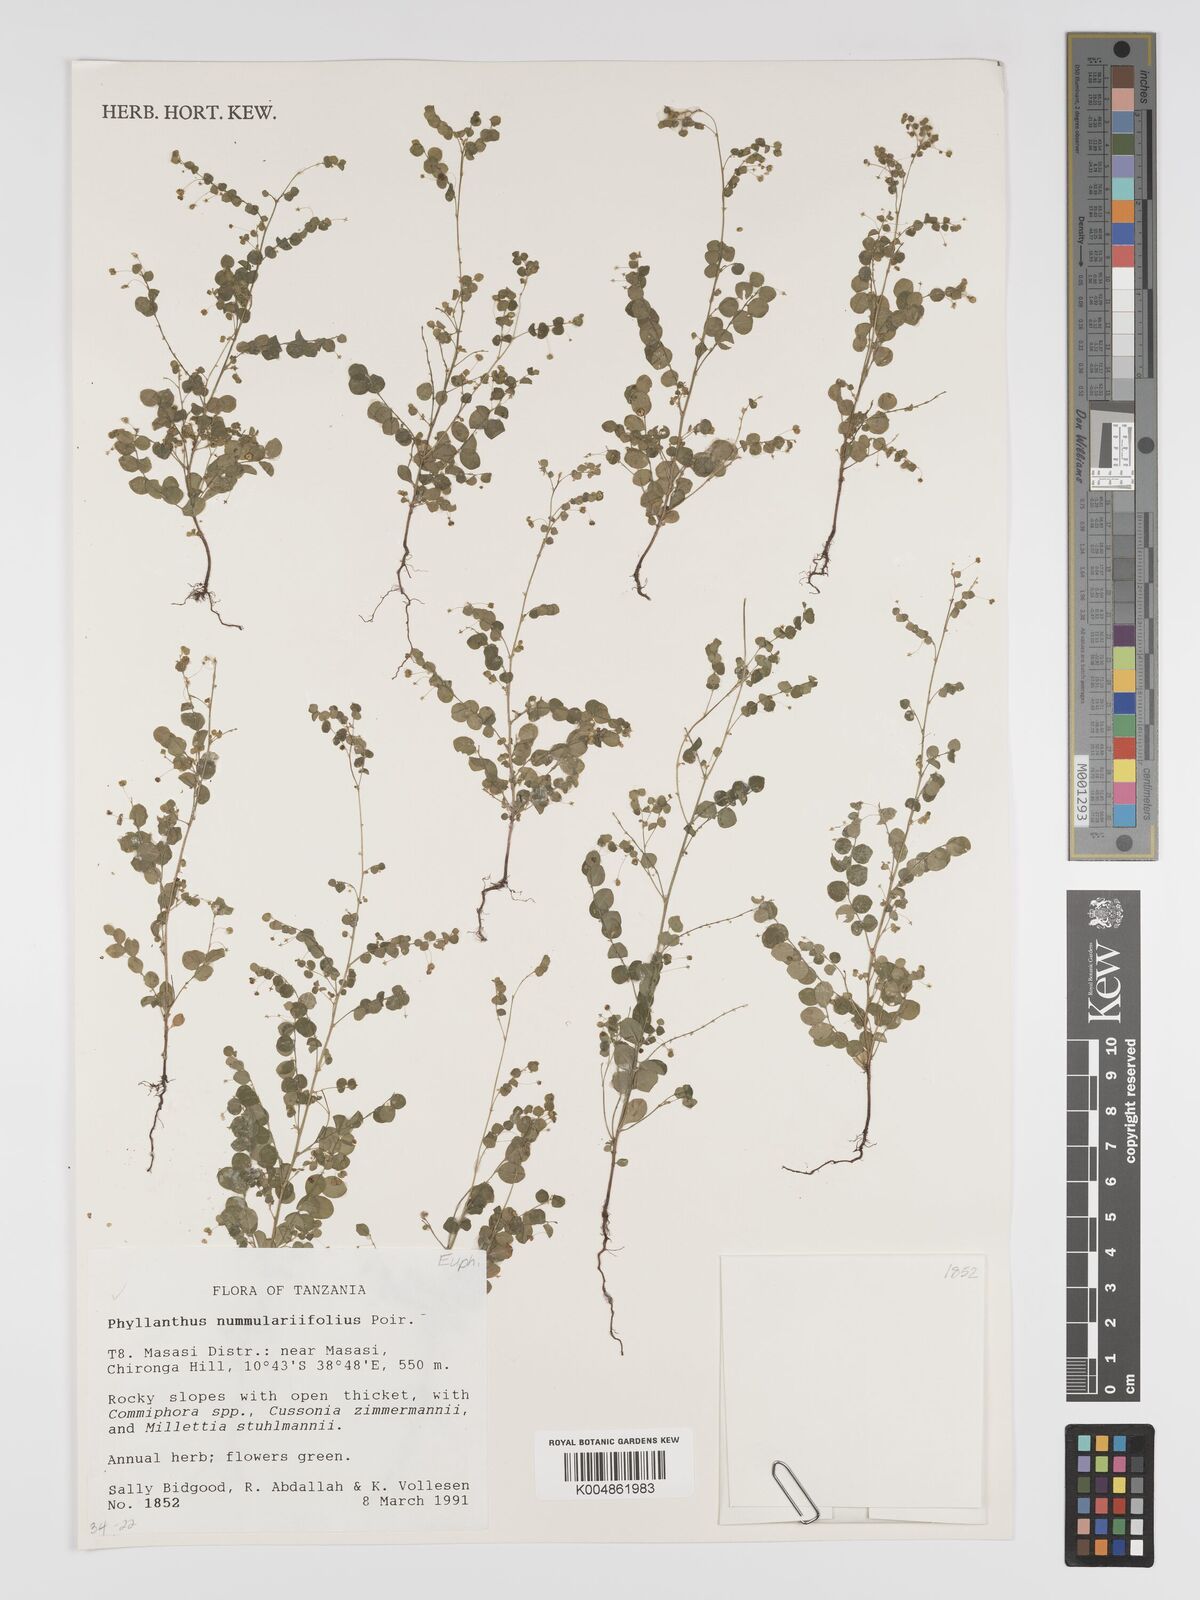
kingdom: Plantae
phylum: Tracheophyta
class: Magnoliopsida
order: Malpighiales
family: Phyllanthaceae
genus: Phyllanthus
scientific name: Phyllanthus nummulariifolius
